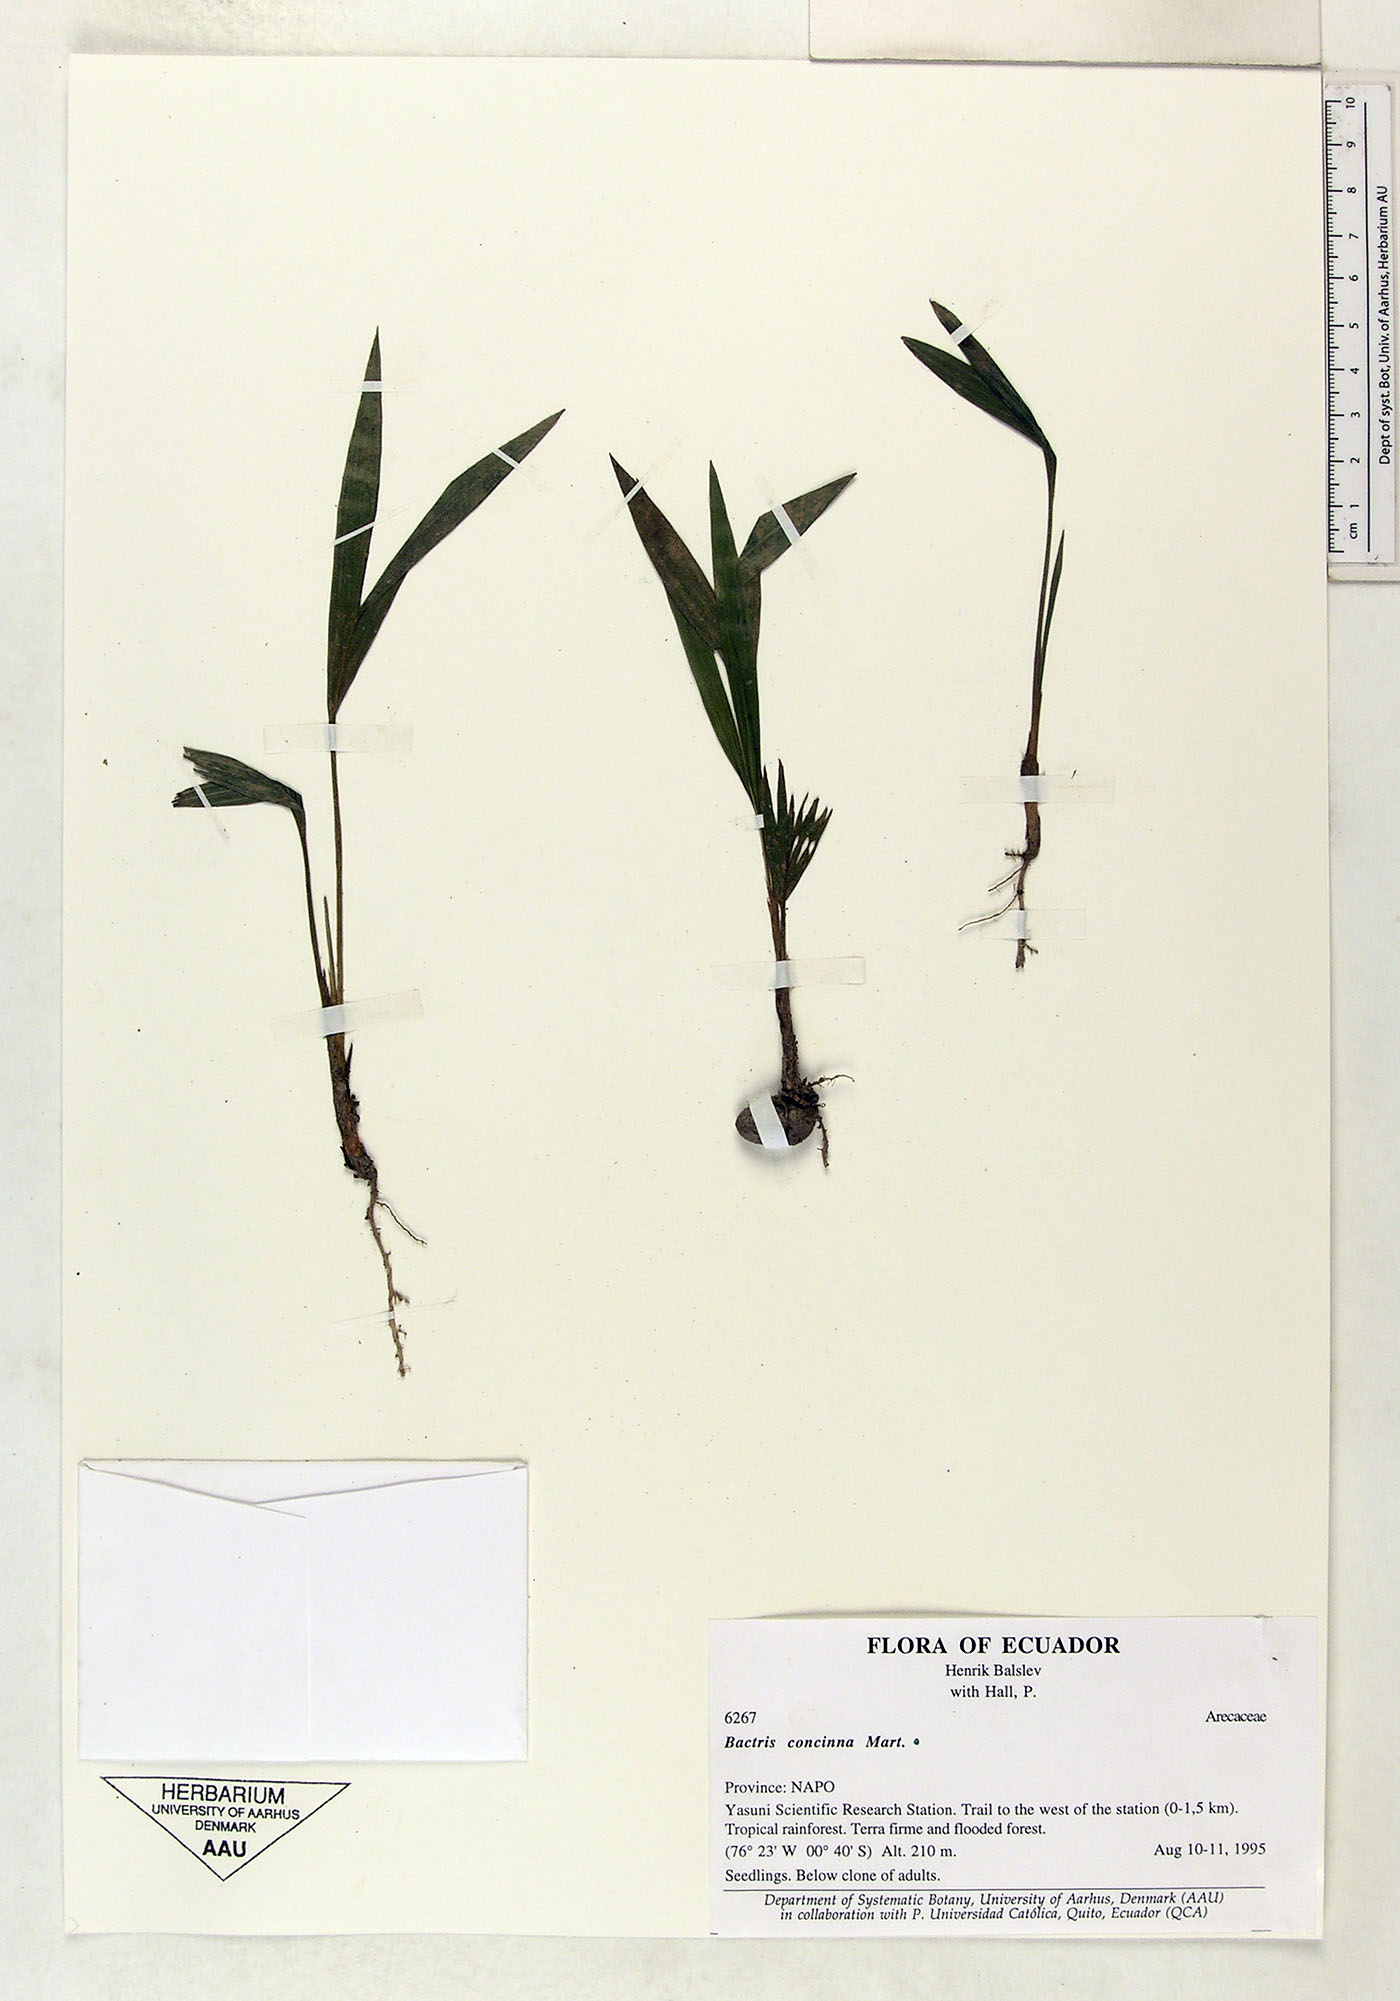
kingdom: Plantae
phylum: Tracheophyta
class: Liliopsida
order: Arecales
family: Arecaceae
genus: Bactris
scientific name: Bactris concinna
